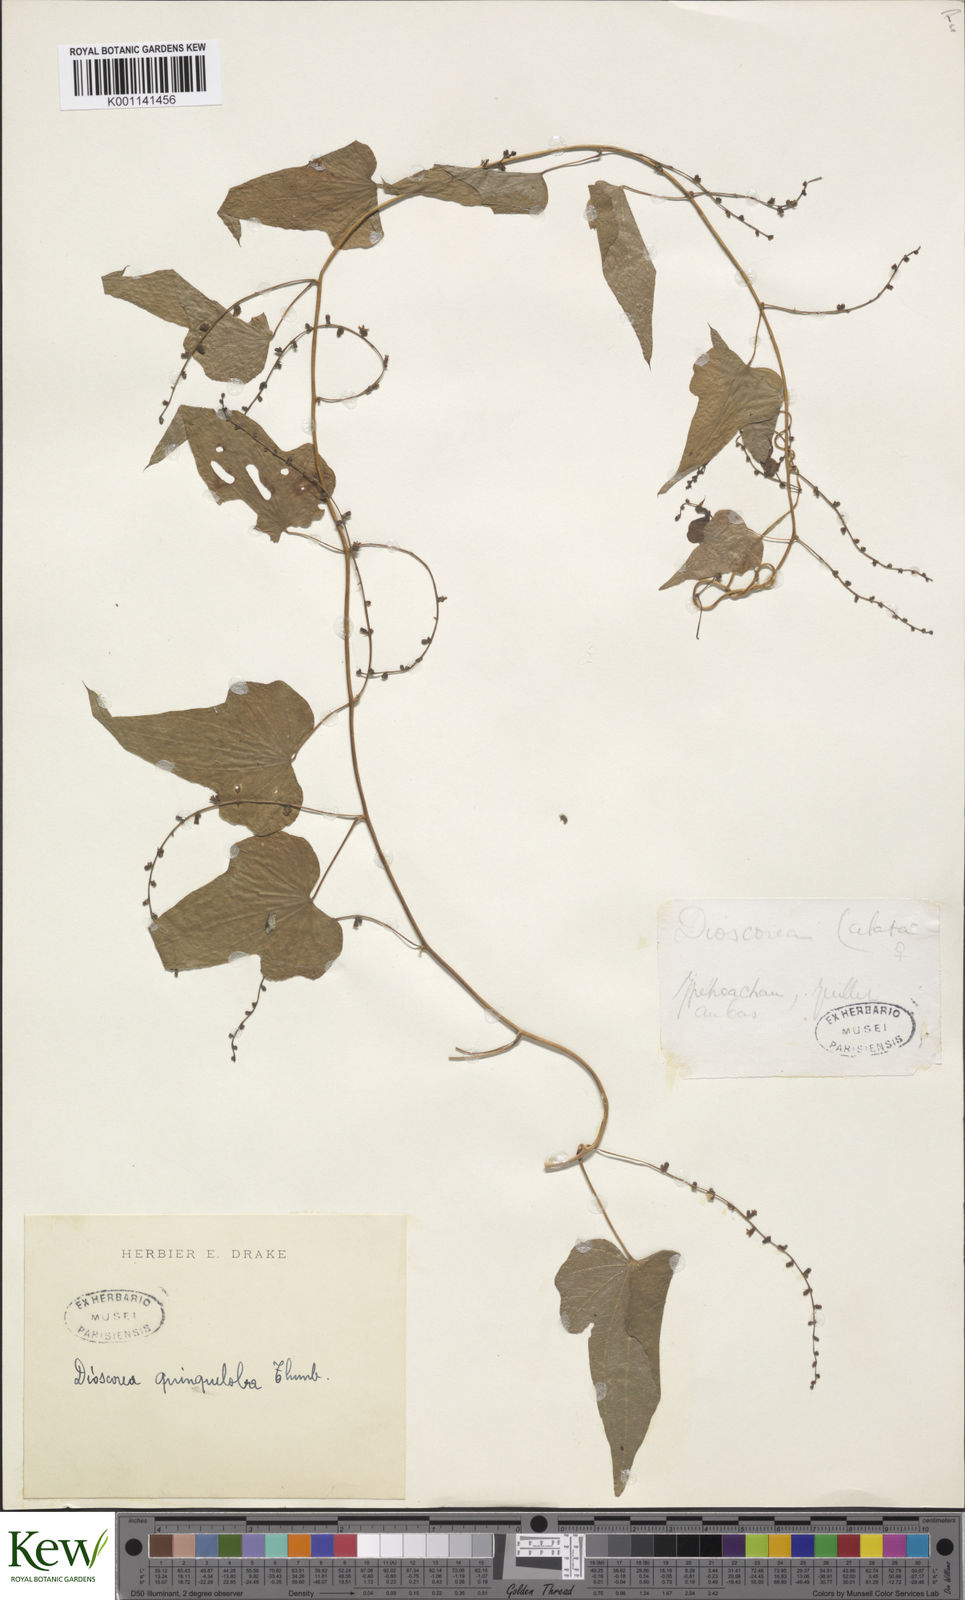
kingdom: Plantae
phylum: Tracheophyta
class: Liliopsida
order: Dioscoreales
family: Dioscoreaceae
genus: Dioscorea
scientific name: Dioscorea quinquelobata
